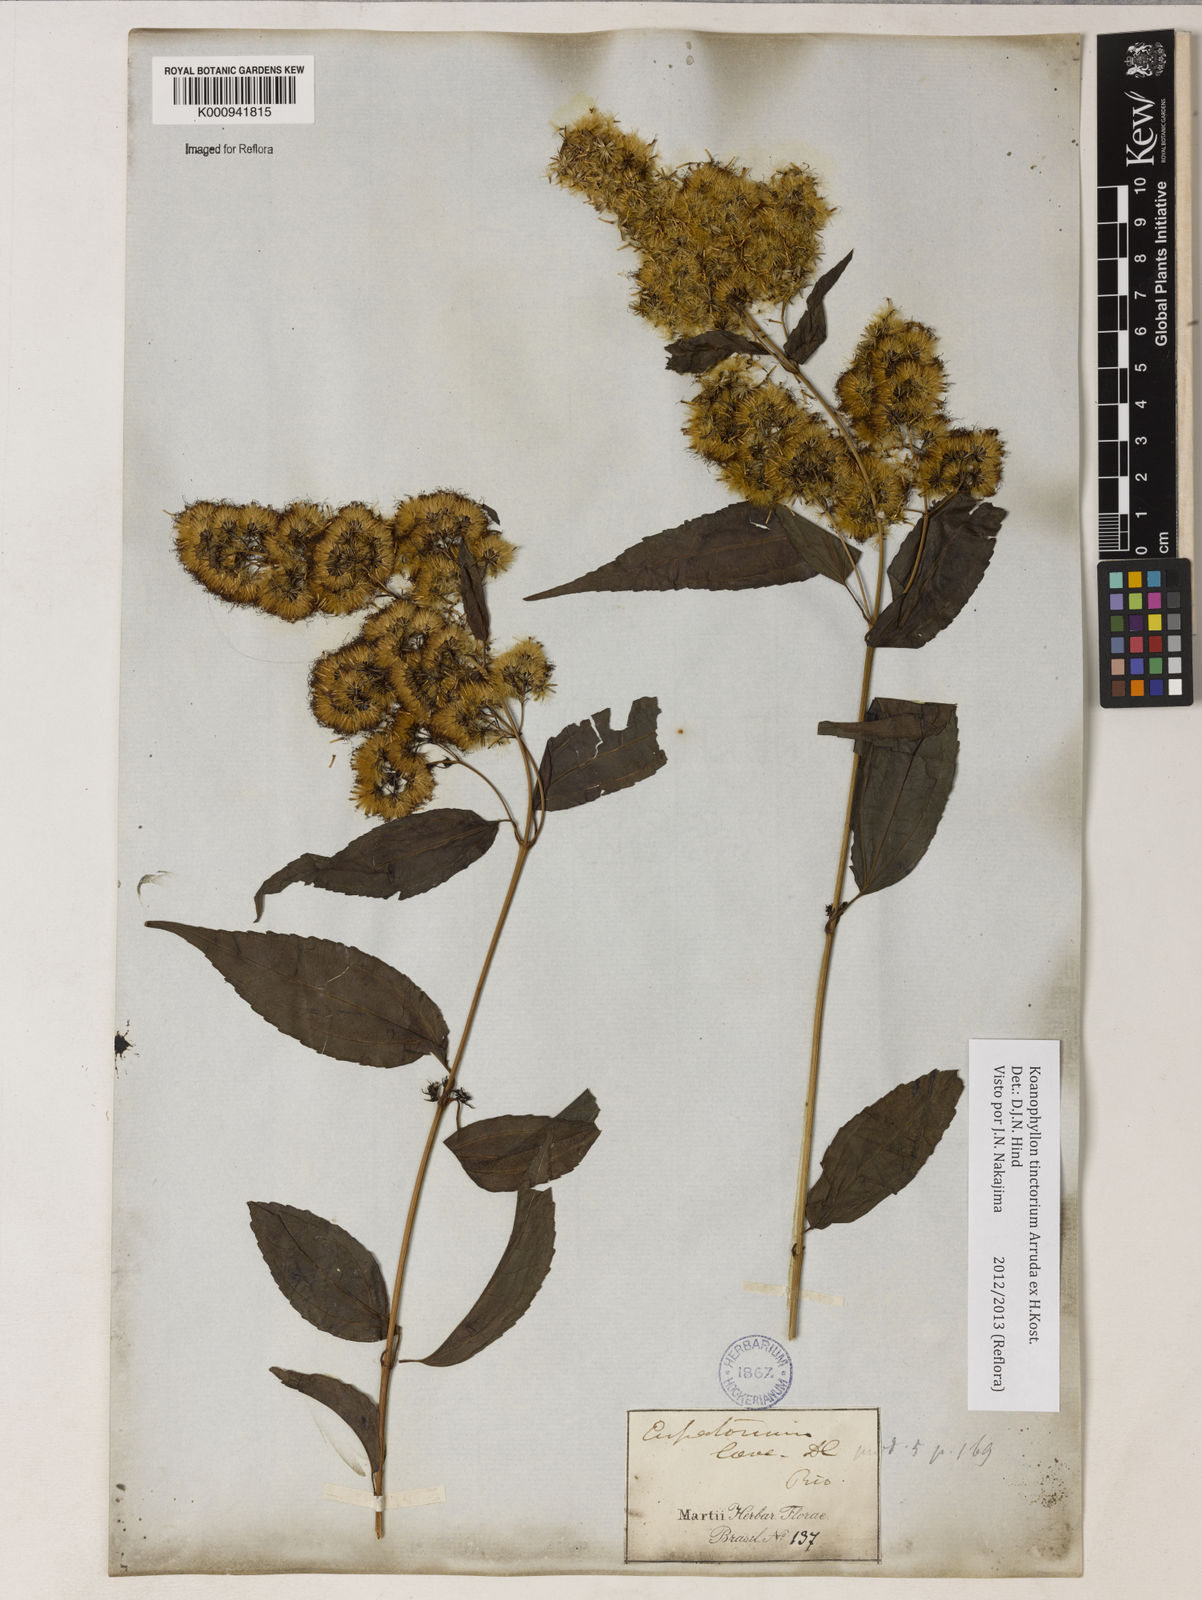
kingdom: Plantae
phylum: Tracheophyta
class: Magnoliopsida
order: Asterales
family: Asteraceae
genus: Koanophyllon
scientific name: Koanophyllon
